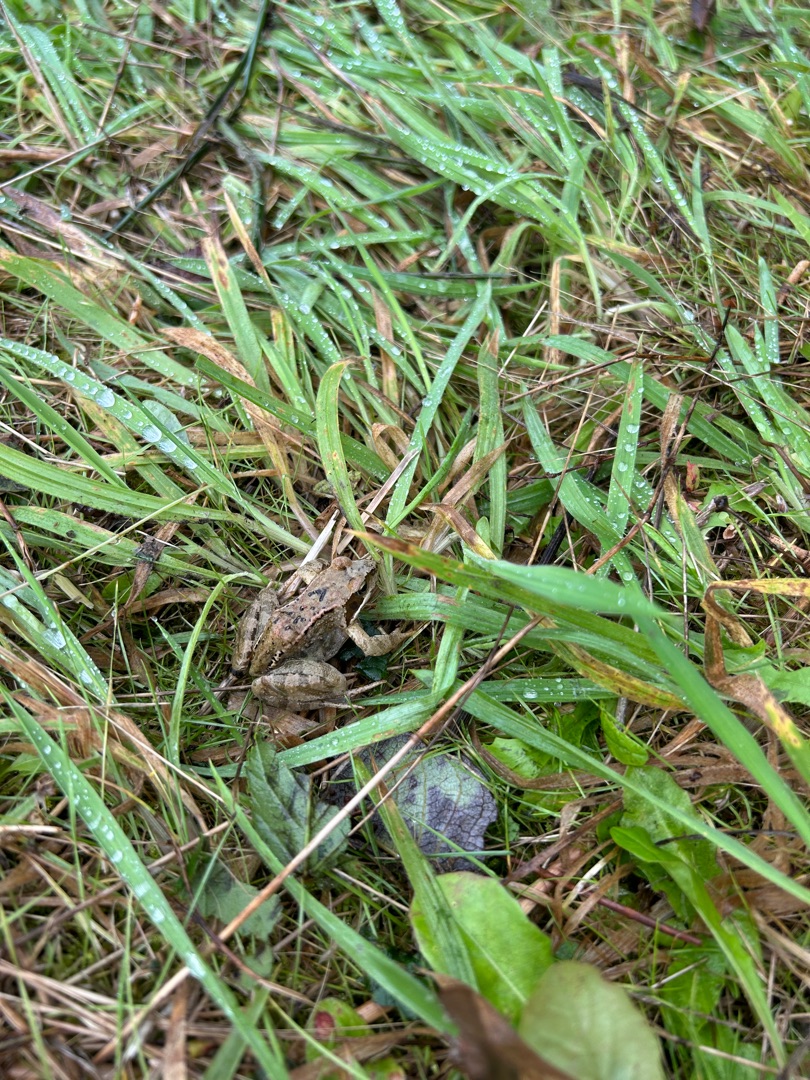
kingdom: Animalia
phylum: Chordata
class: Amphibia
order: Anura
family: Ranidae
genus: Rana
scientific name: Rana temporaria
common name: Butsnudet frø
